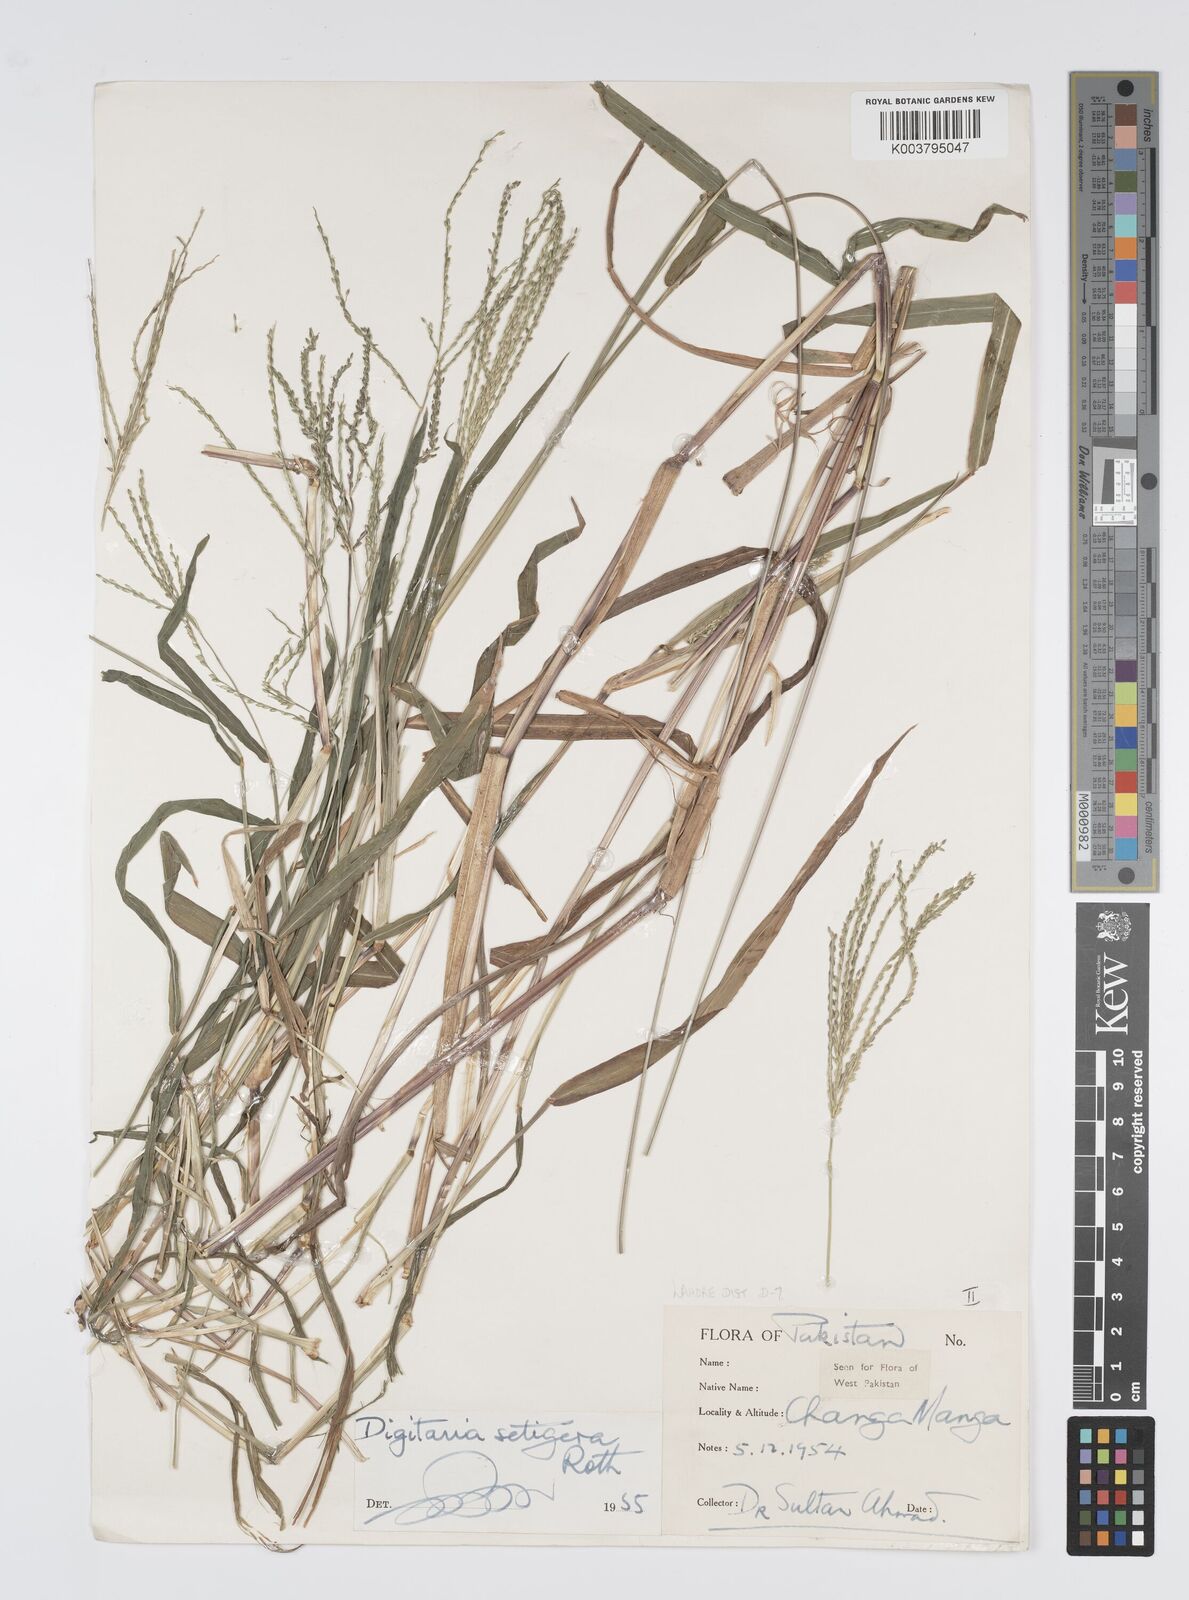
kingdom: Plantae
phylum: Tracheophyta
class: Liliopsida
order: Poales
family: Poaceae
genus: Digitaria
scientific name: Digitaria setigera
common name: East indian crabgrass
